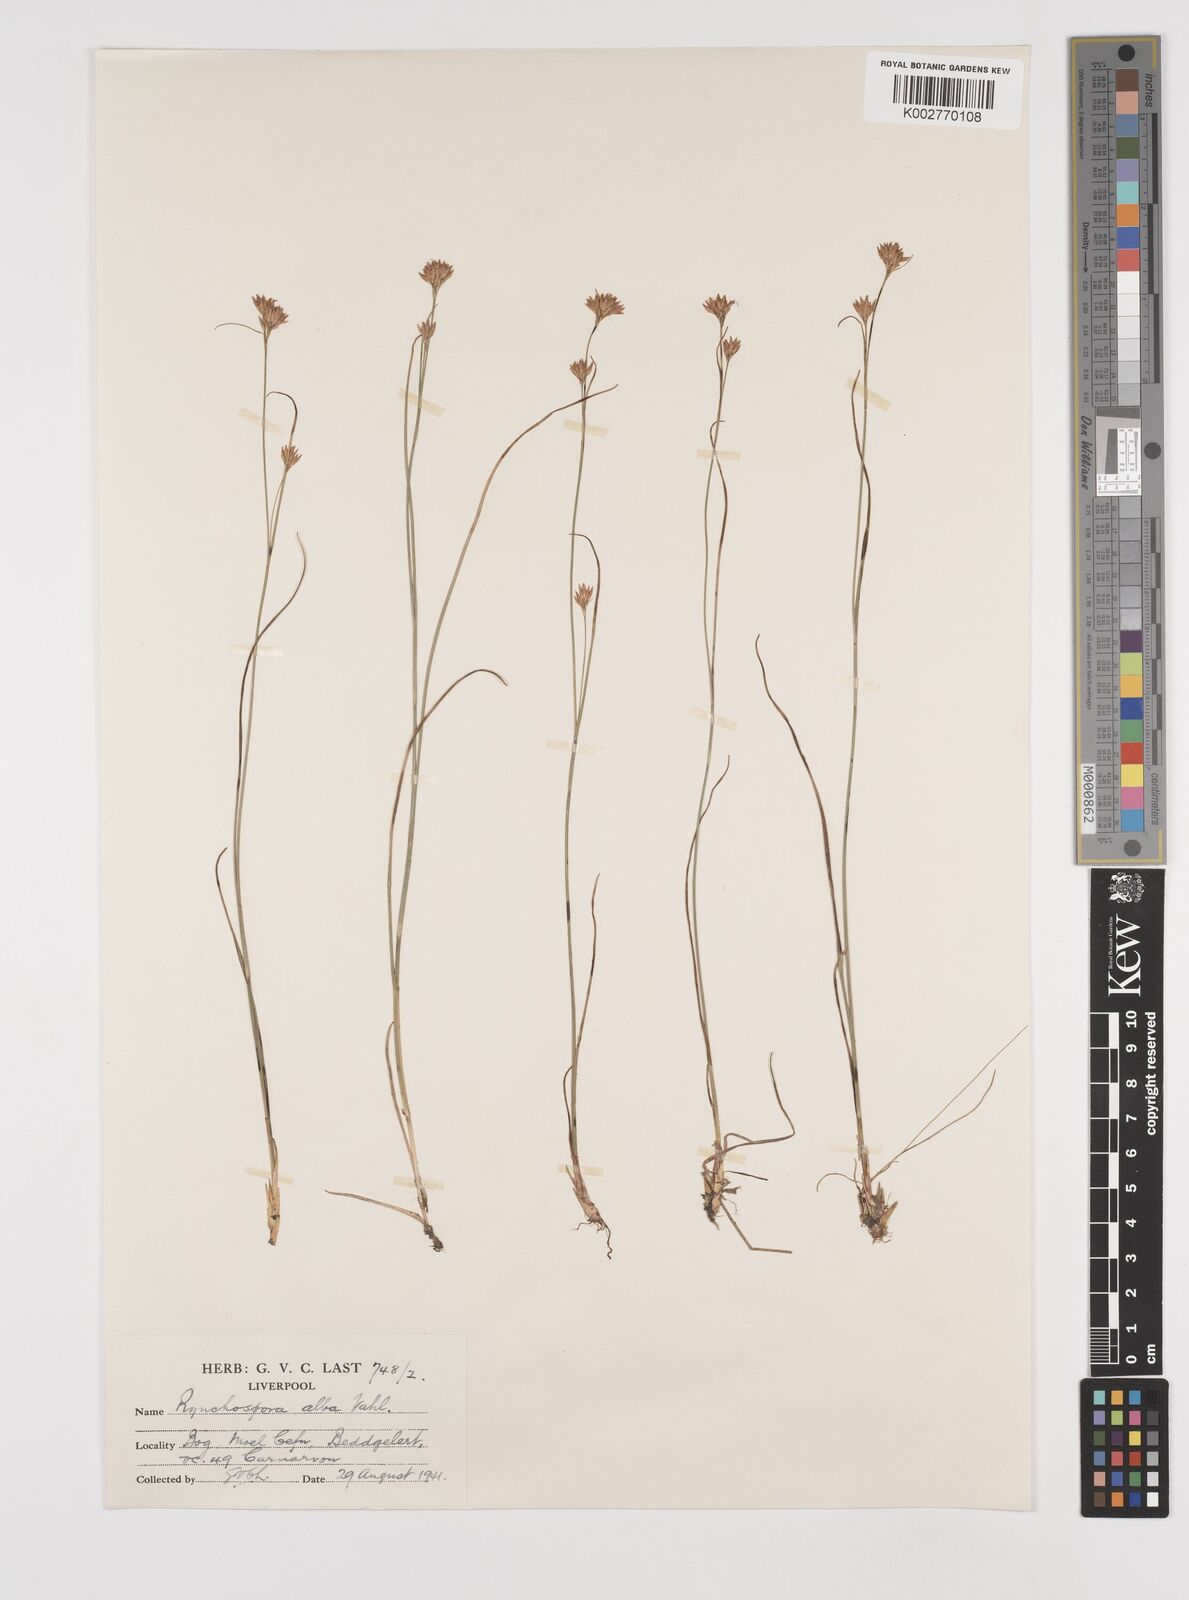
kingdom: Plantae
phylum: Tracheophyta
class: Liliopsida
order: Poales
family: Cyperaceae
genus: Rhynchospora
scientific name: Rhynchospora alba
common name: White beak-sedge
